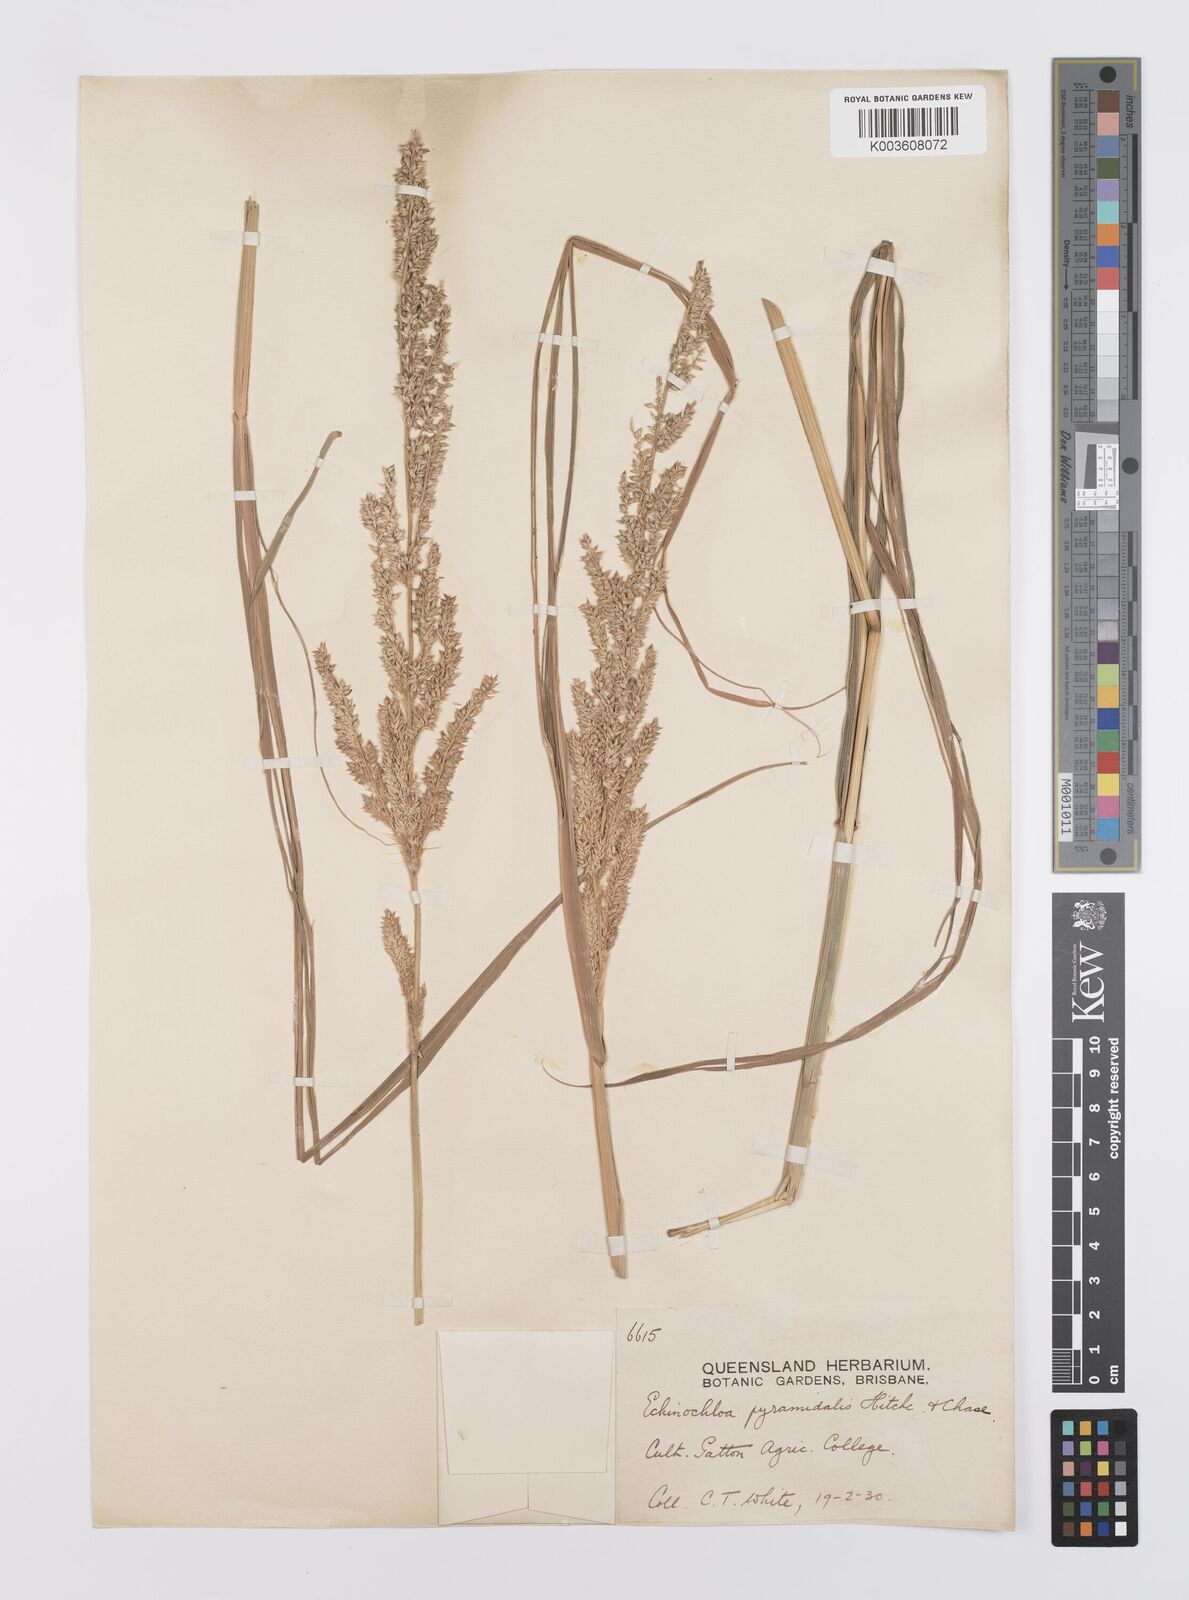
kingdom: Plantae
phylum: Tracheophyta
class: Liliopsida
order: Poales
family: Poaceae
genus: Echinochloa
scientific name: Echinochloa pyramidalis
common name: Antelope grass
